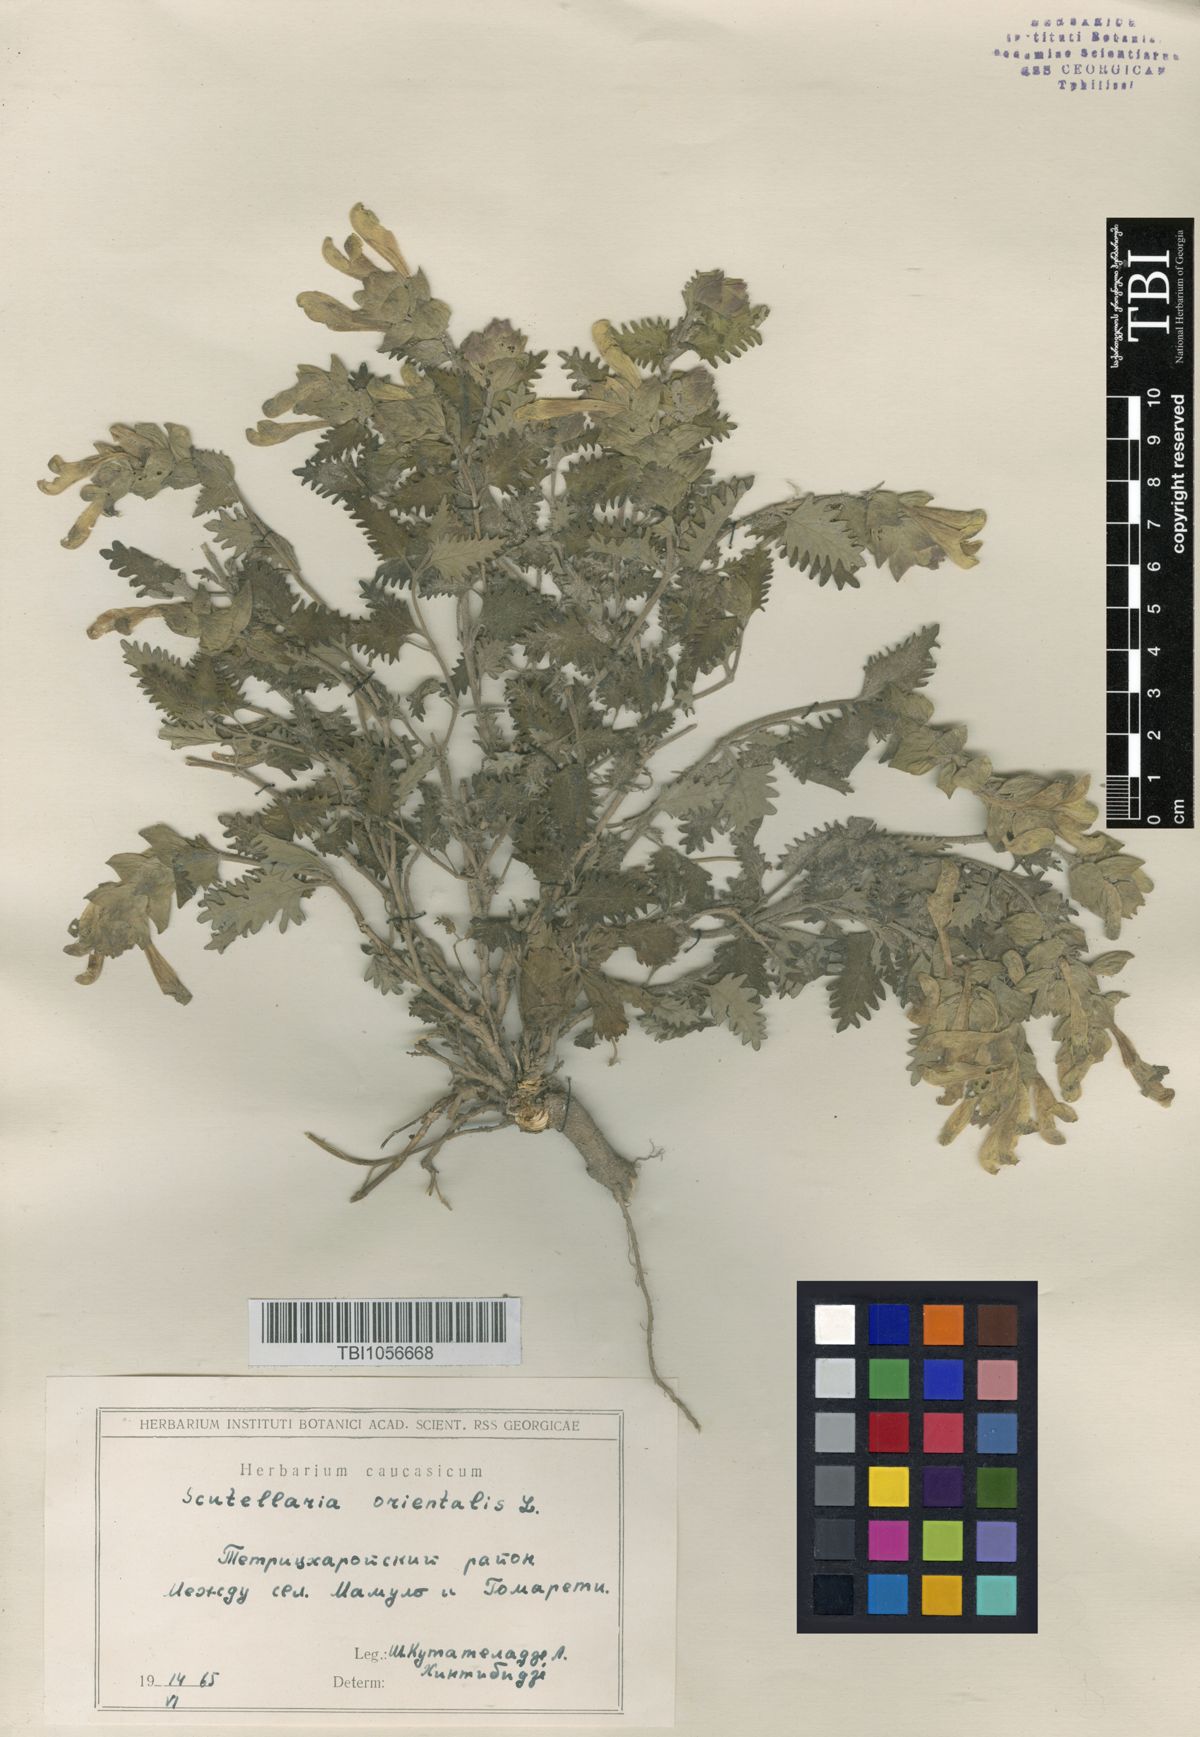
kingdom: Plantae
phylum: Tracheophyta
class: Magnoliopsida
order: Lamiales
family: Lamiaceae
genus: Scutellaria
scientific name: Scutellaria orientalis
